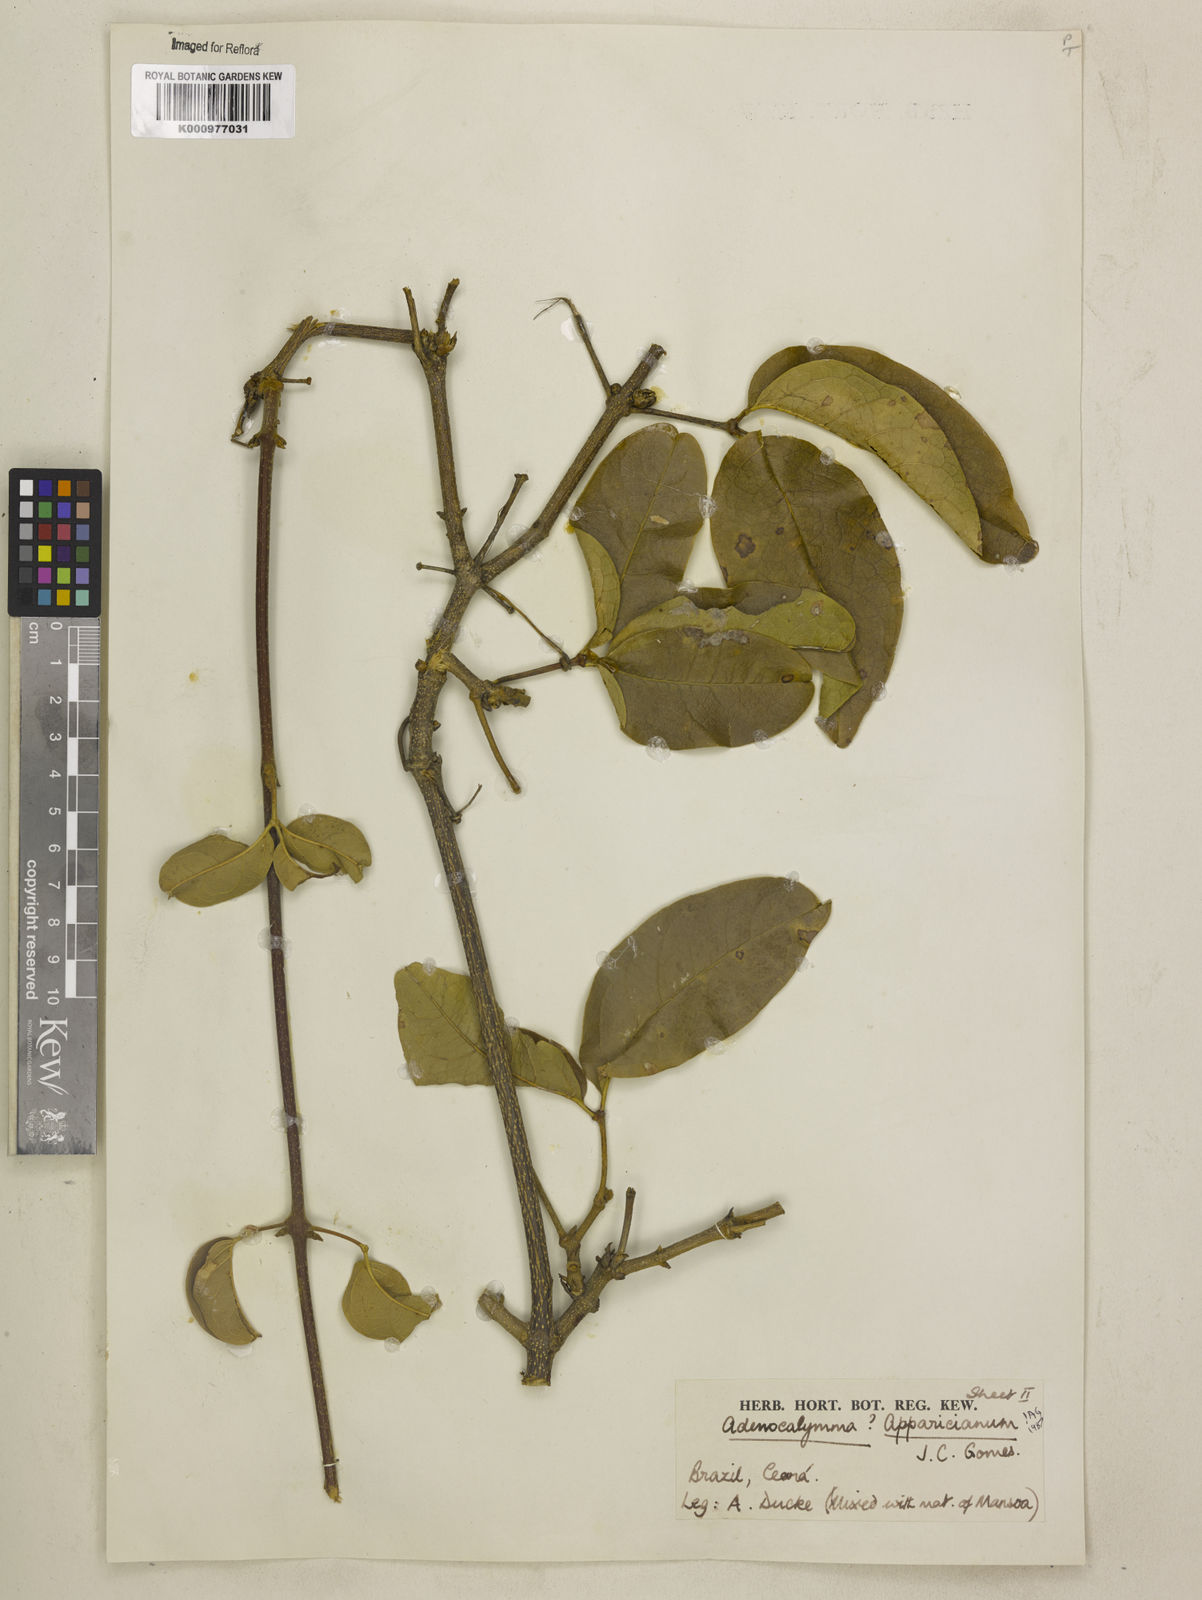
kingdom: Plantae
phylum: Tracheophyta
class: Magnoliopsida
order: Lamiales
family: Bignoniaceae
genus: Adenocalymma
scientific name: Adenocalymma apparicianum
